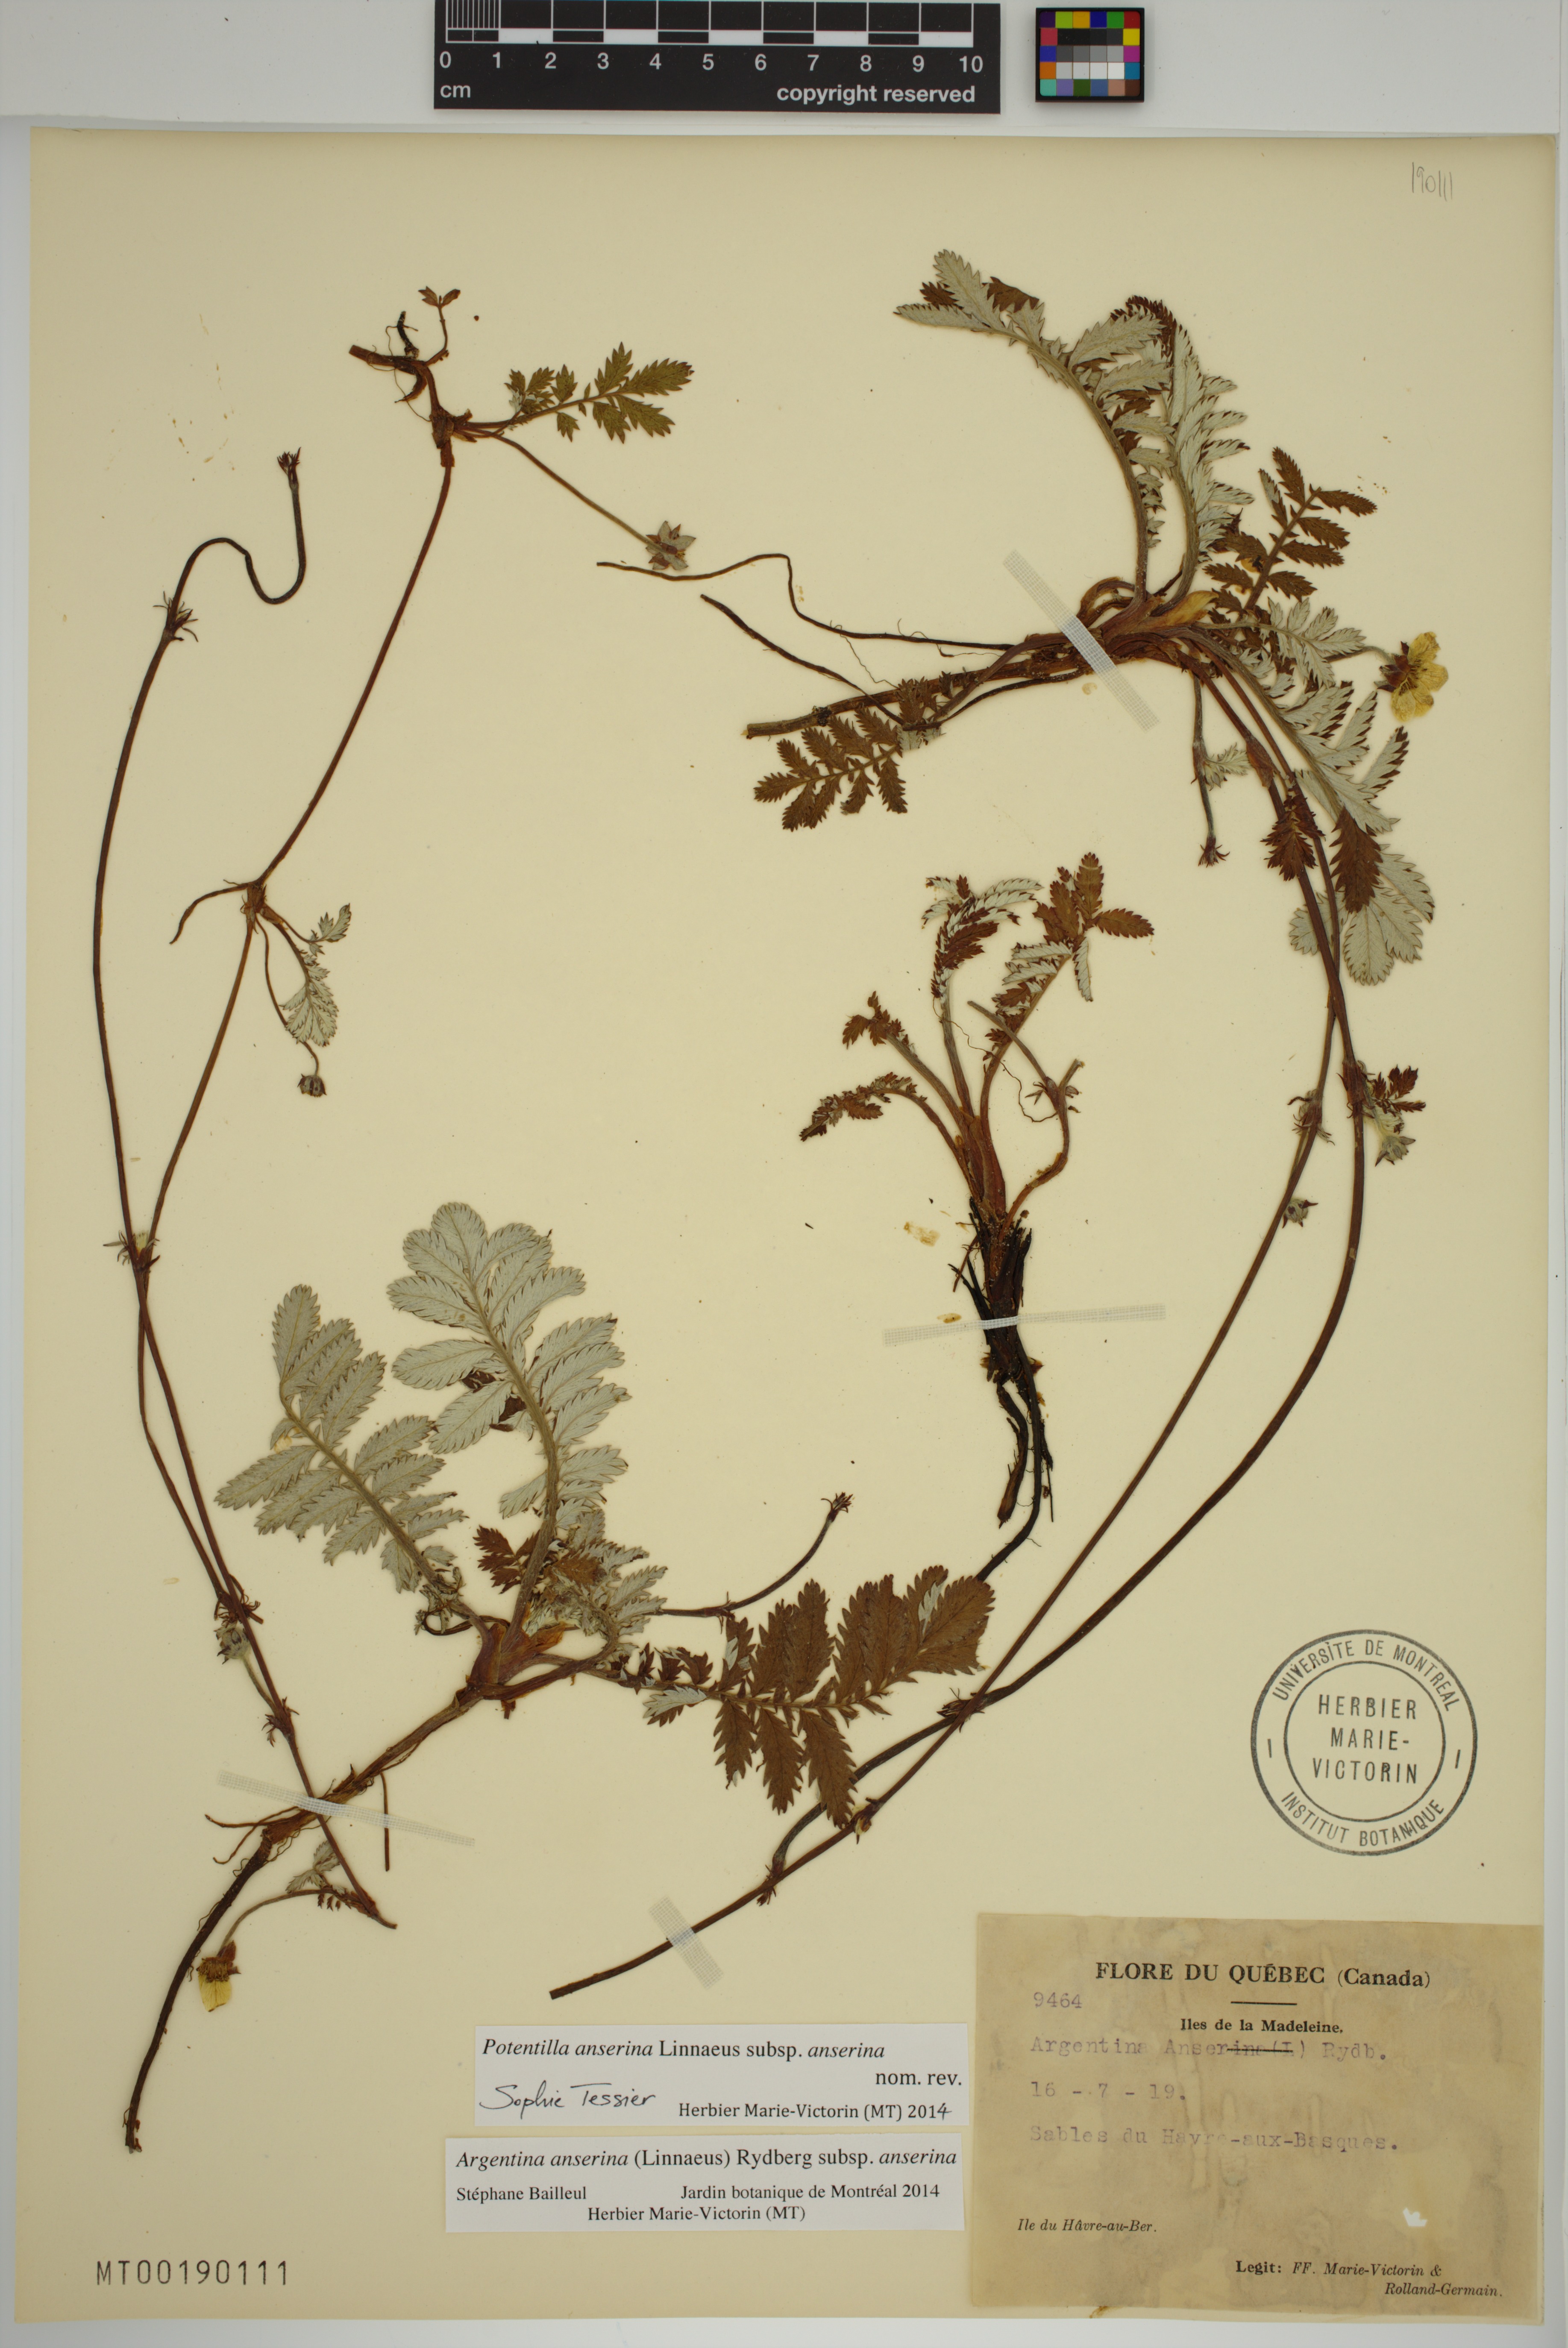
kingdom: Plantae
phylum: Tracheophyta
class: Magnoliopsida
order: Rosales
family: Rosaceae
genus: Argentina
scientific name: Argentina anserina
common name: Common silverweed
